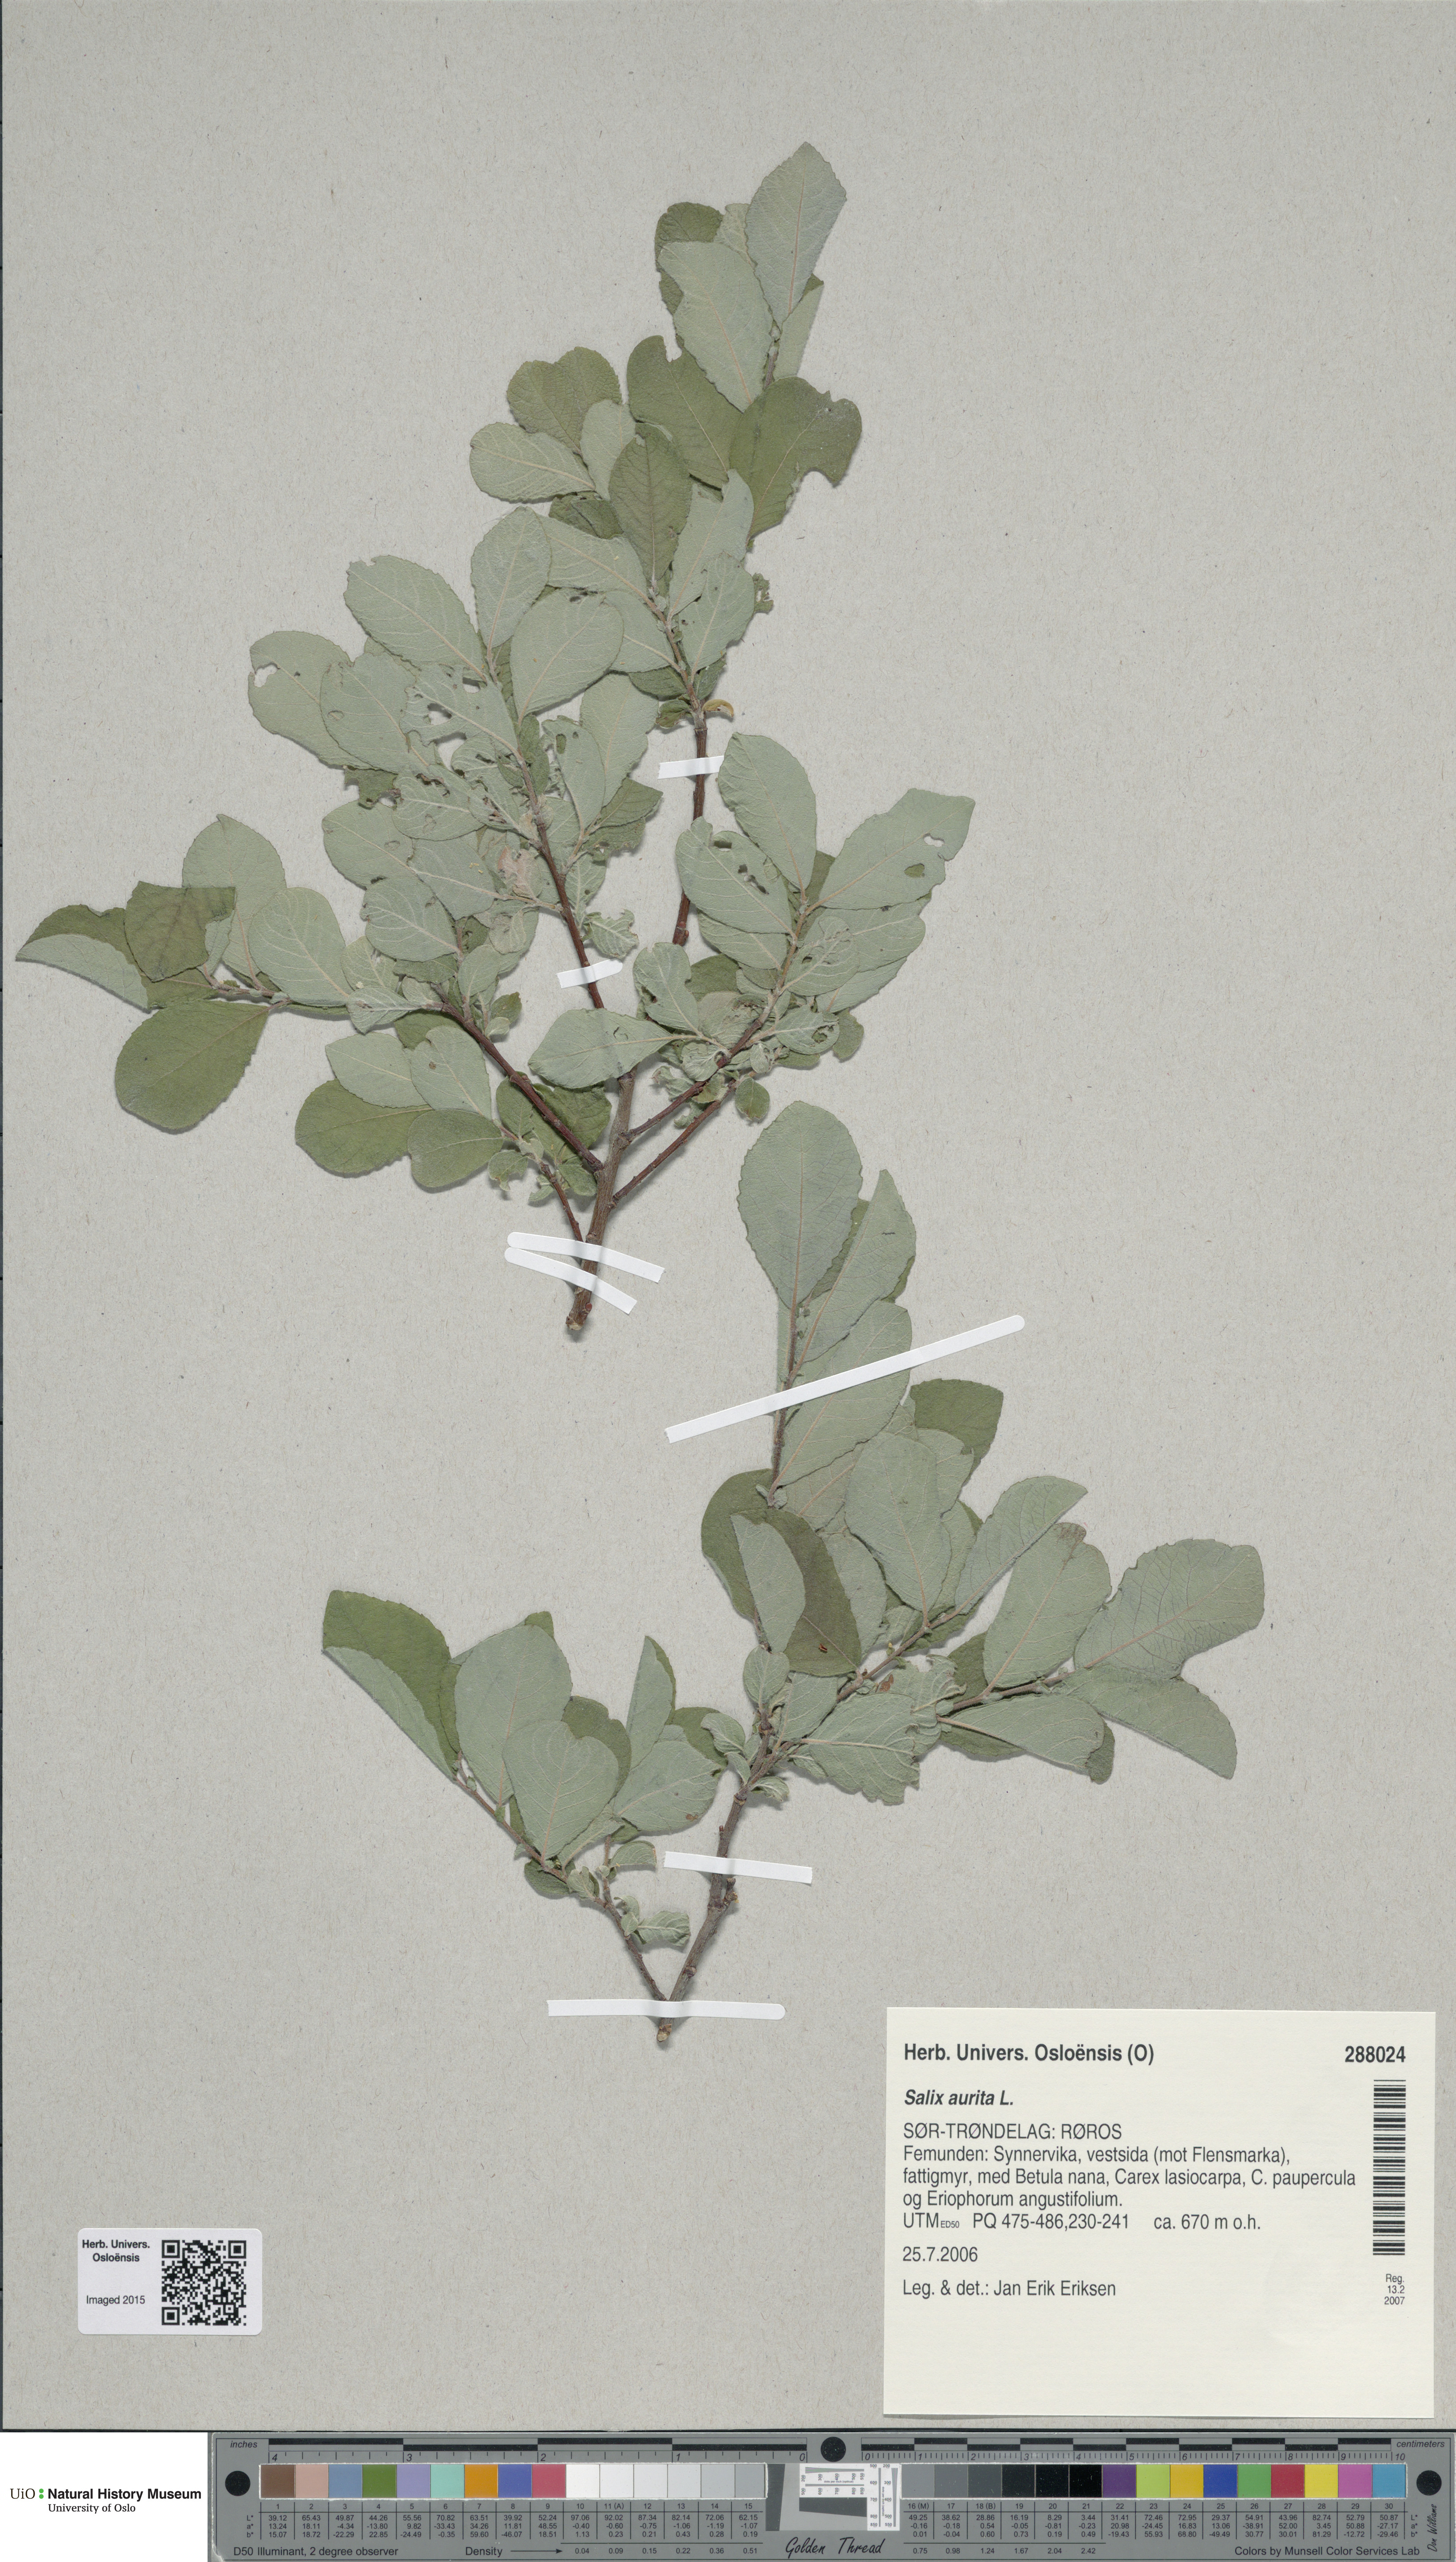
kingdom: Plantae
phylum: Tracheophyta
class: Magnoliopsida
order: Malpighiales
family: Salicaceae
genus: Salix
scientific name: Salix aurita
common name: Eared willow
